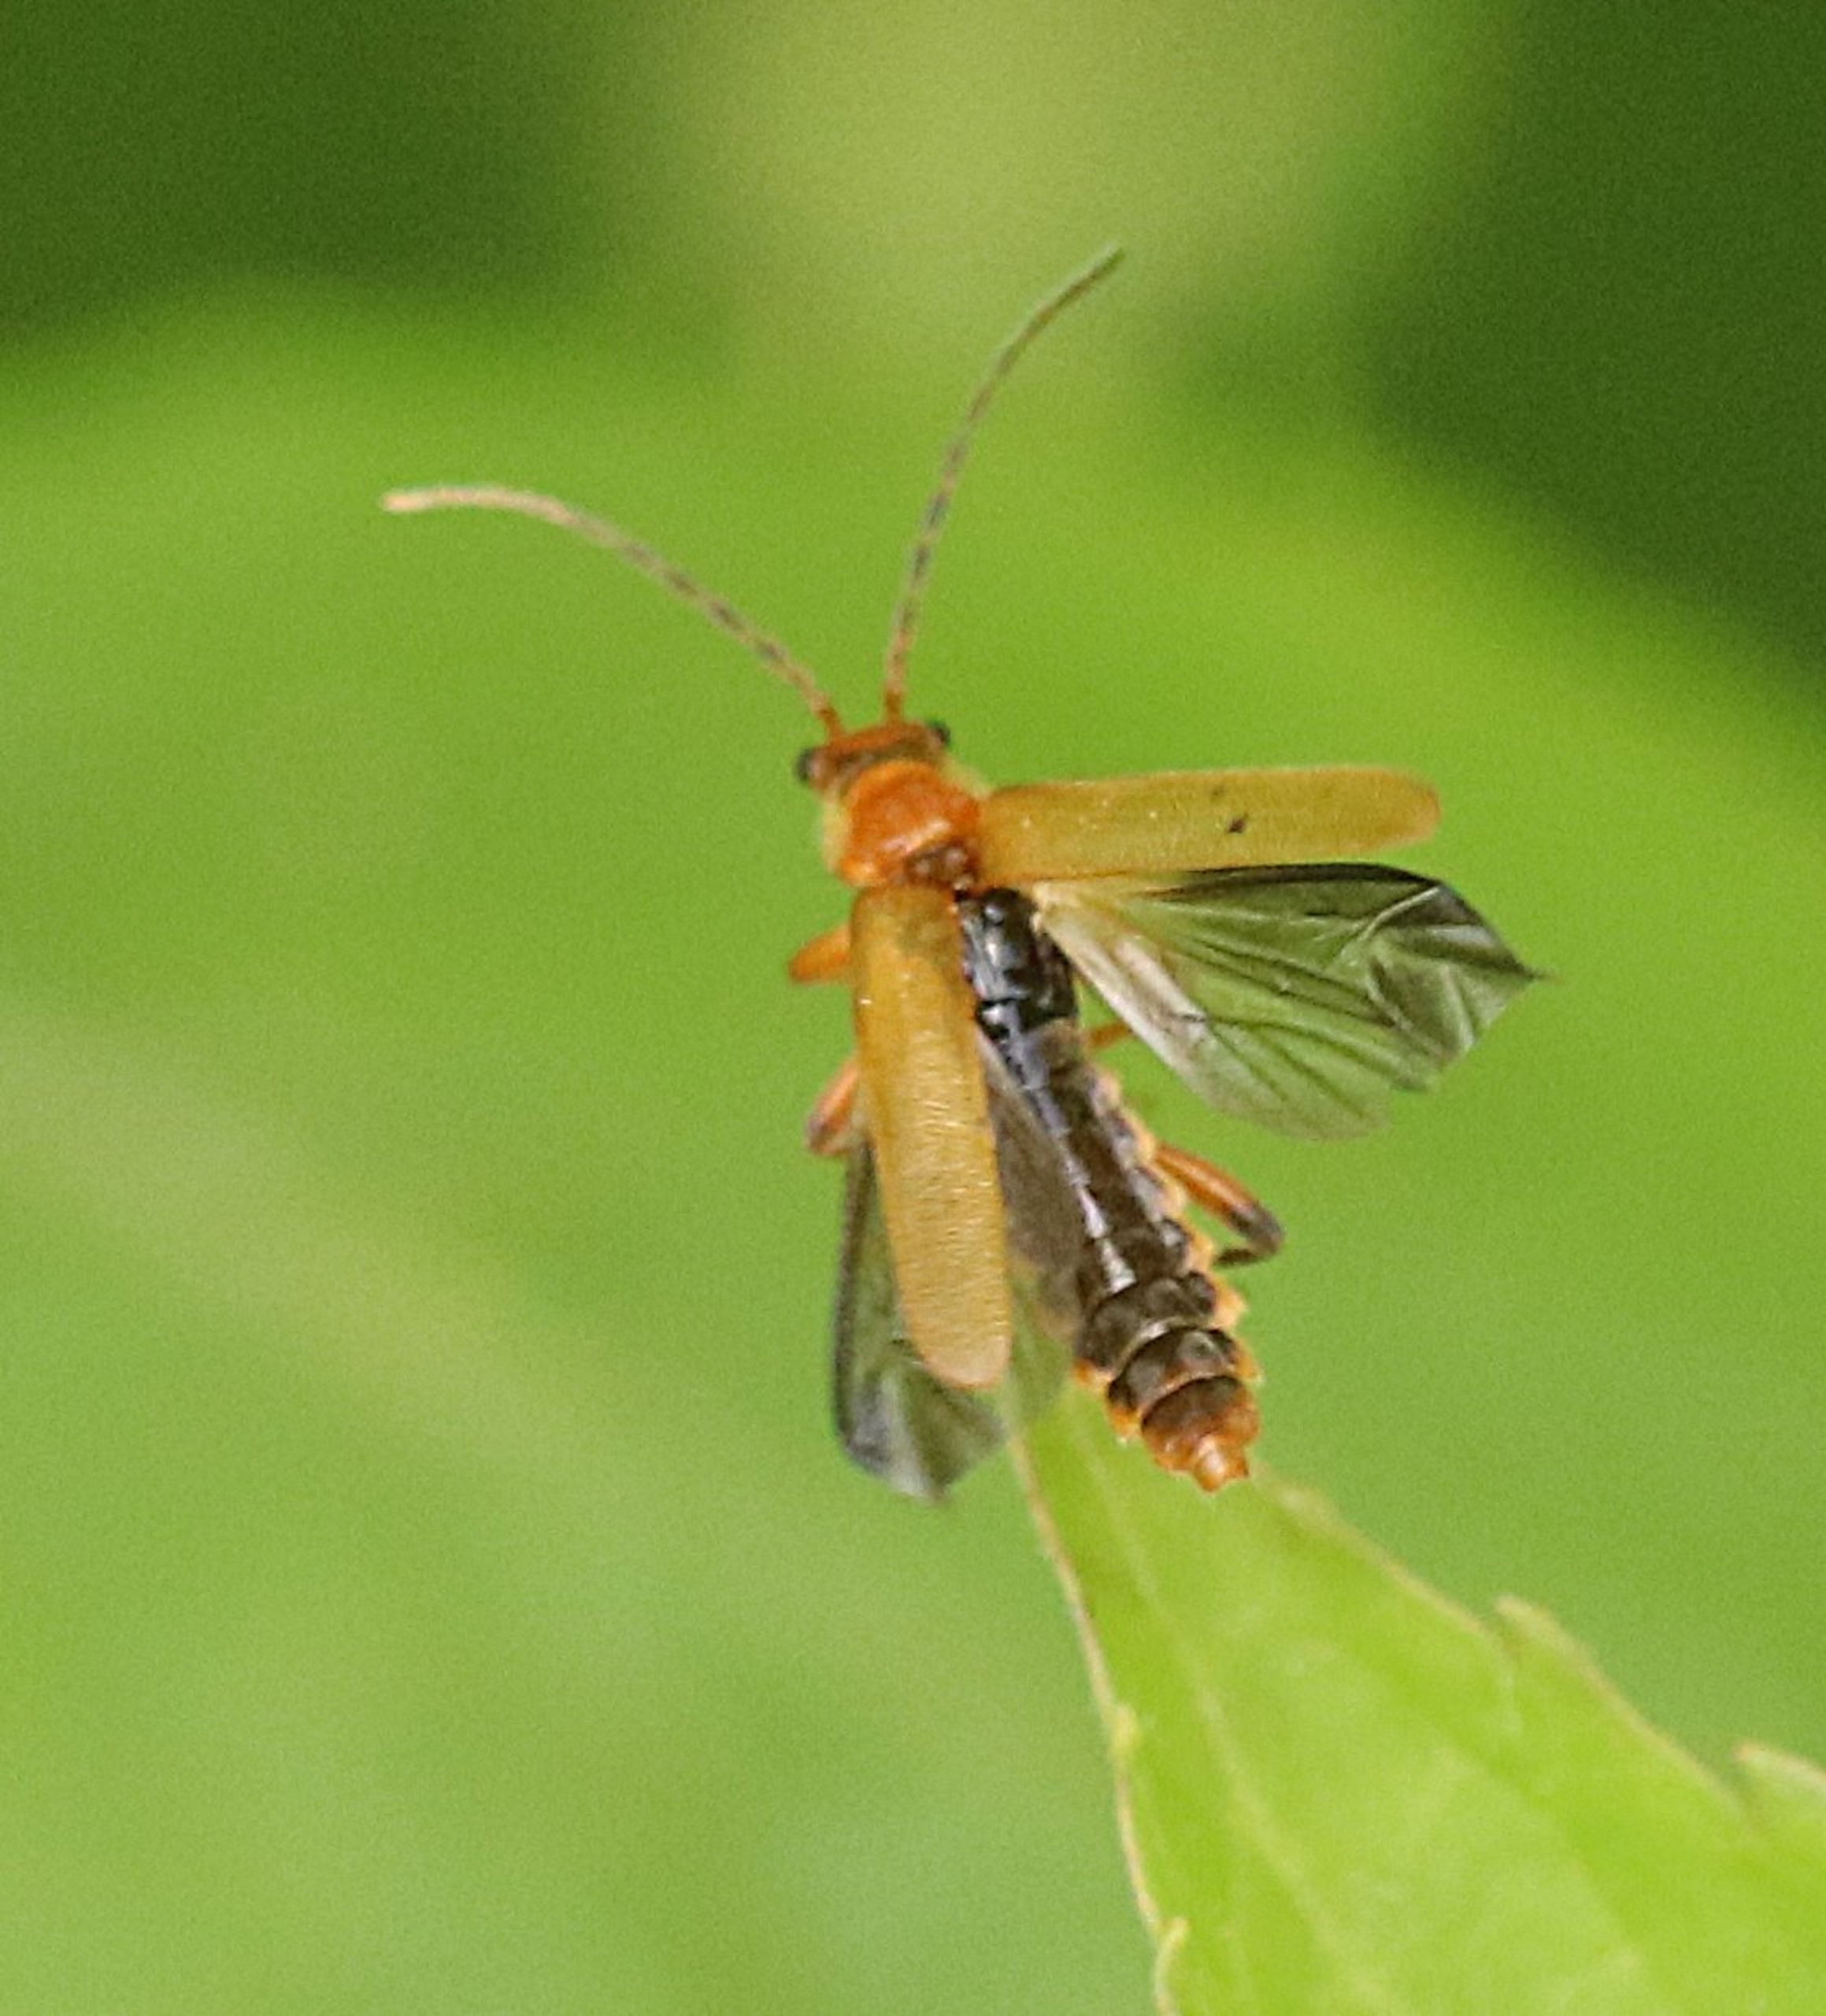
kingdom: Animalia
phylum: Arthropoda
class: Insecta
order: Coleoptera
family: Cantharidae
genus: Cantharis
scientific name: Cantharis livida
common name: Gul blødvinge
